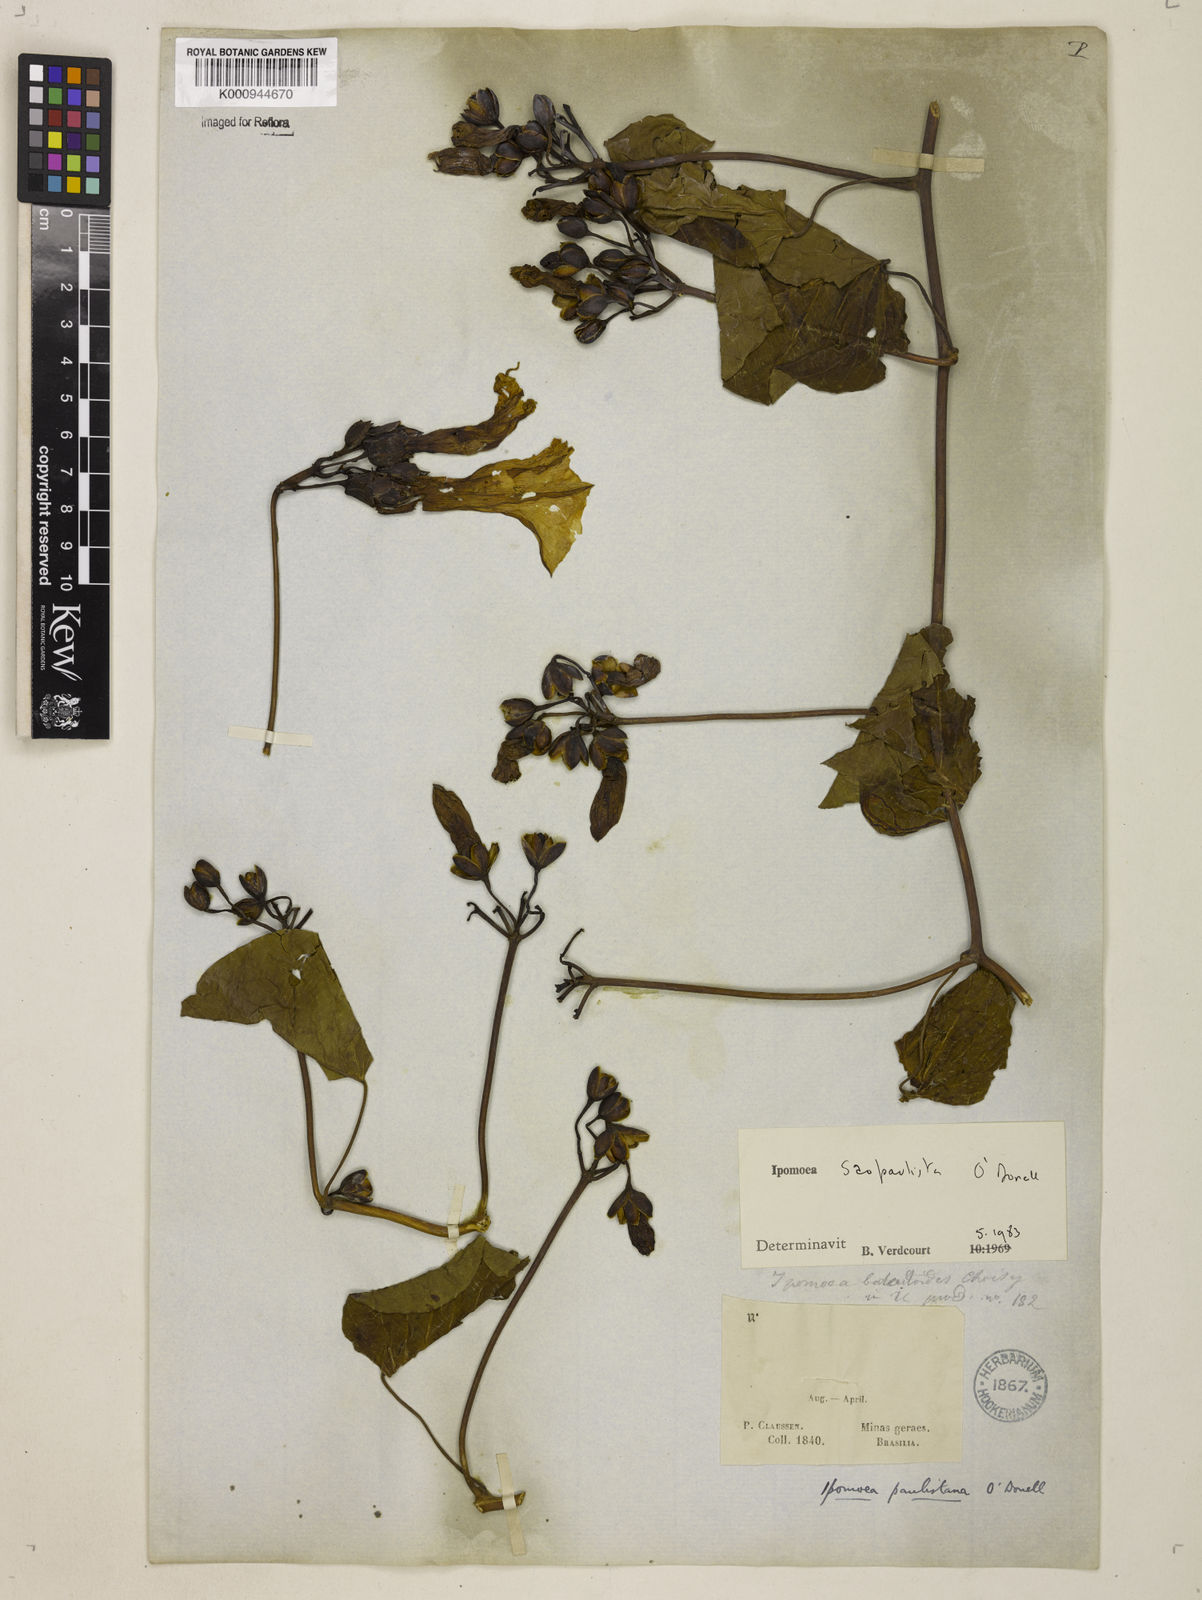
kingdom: Plantae
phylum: Tracheophyta
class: Magnoliopsida
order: Solanales
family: Convolvulaceae
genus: Ipomoea
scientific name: Ipomoea
